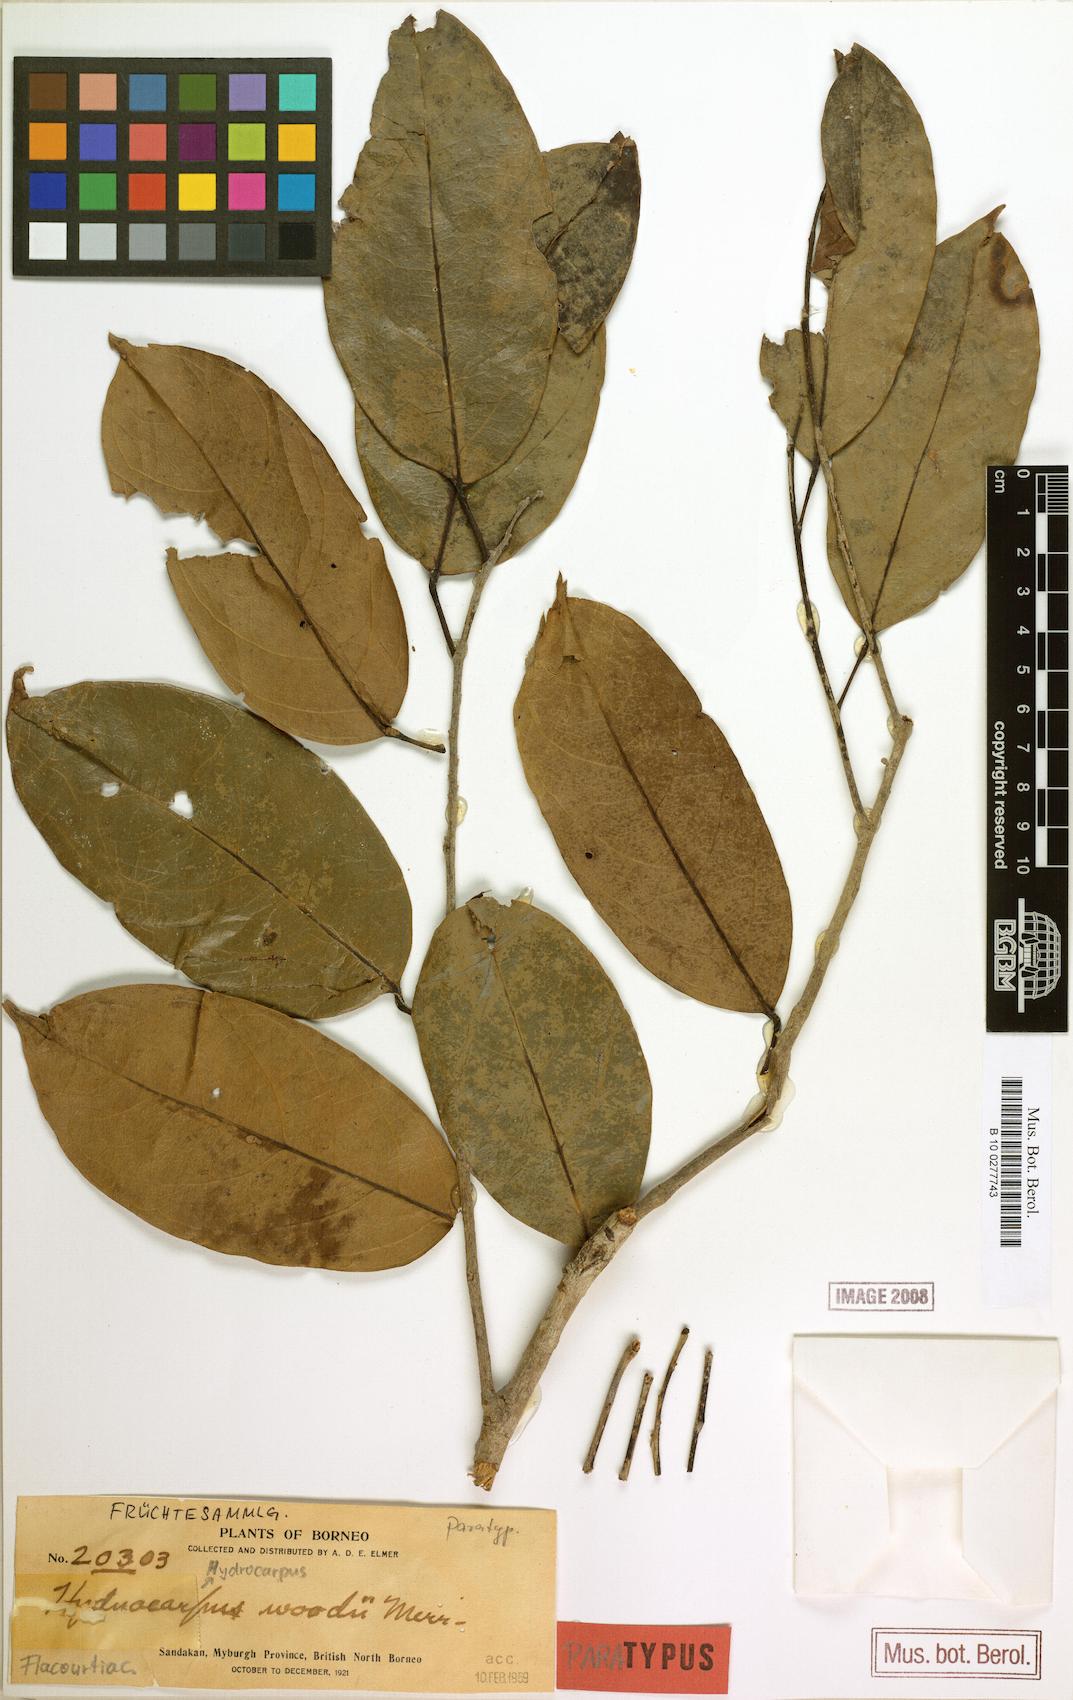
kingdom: Plantae
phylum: Tracheophyta
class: Magnoliopsida
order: Malpighiales
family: Achariaceae
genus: Hydnocarpus
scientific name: Hydnocarpus woodii
